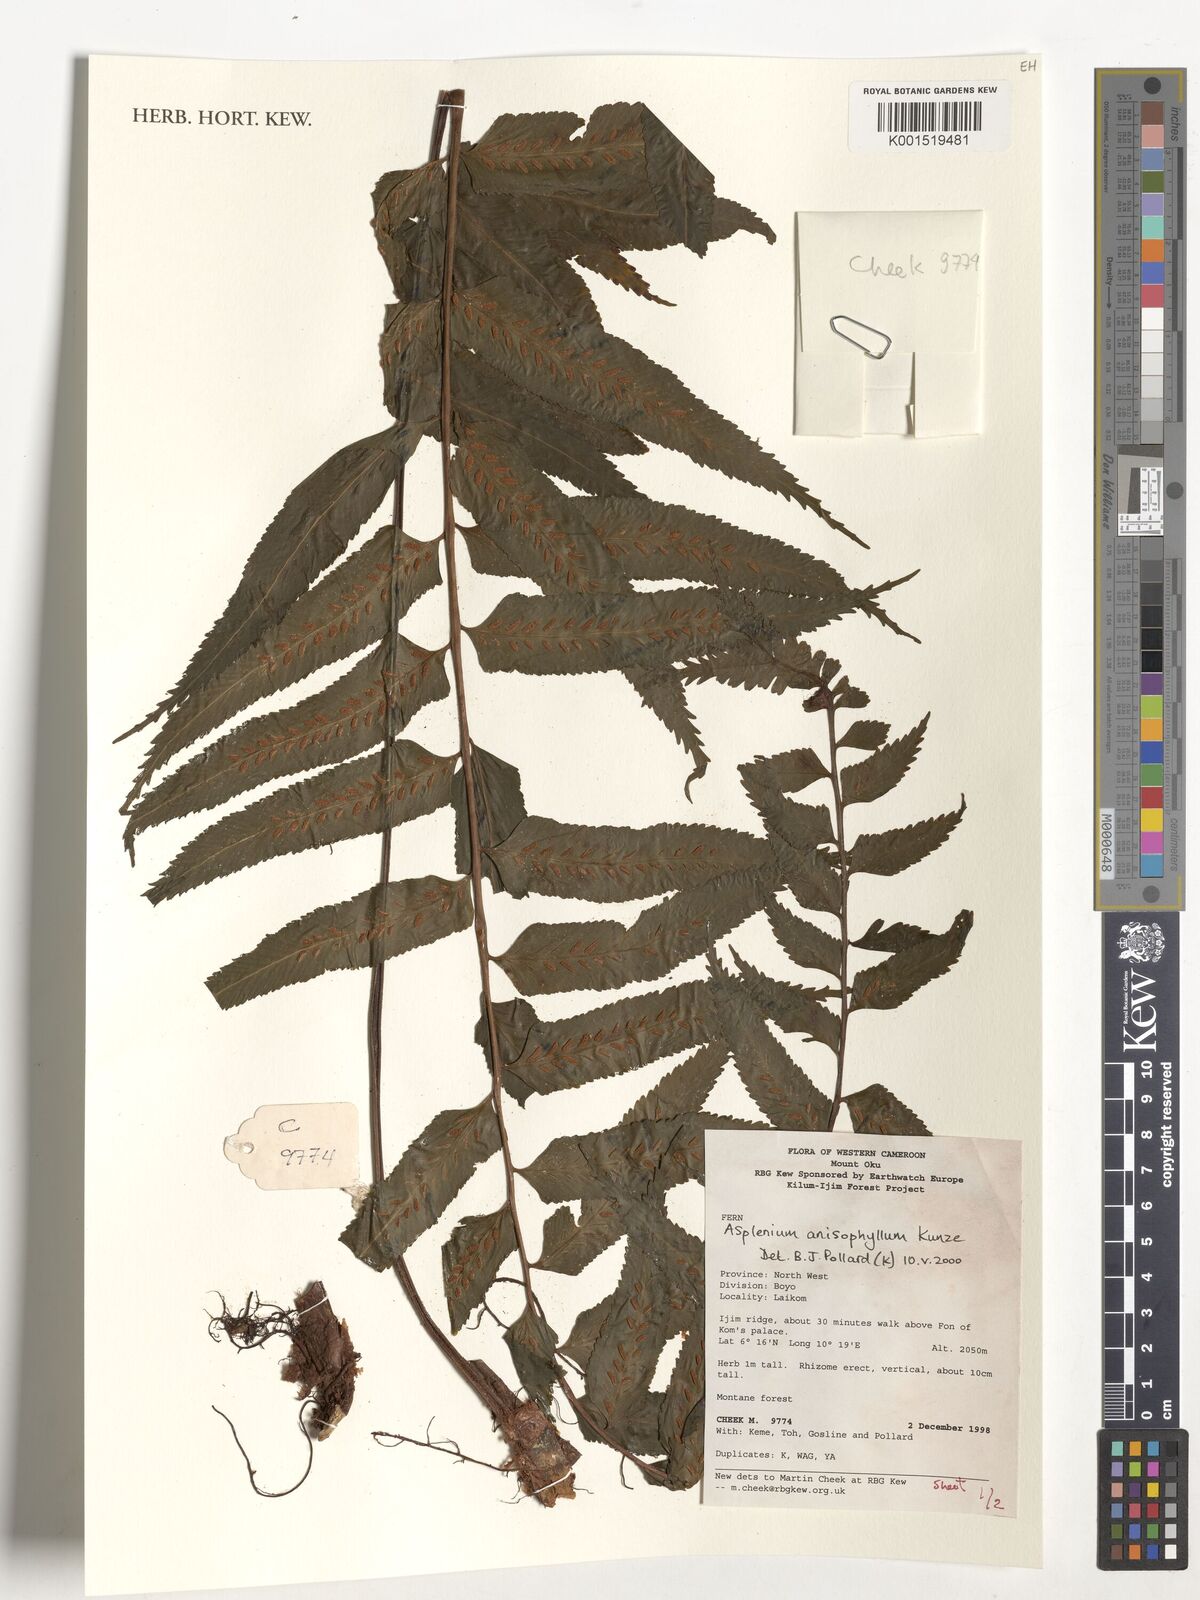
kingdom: Plantae
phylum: Tracheophyta
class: Polypodiopsida
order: Polypodiales
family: Aspleniaceae
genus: Asplenium
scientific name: Asplenium anisophyllum
